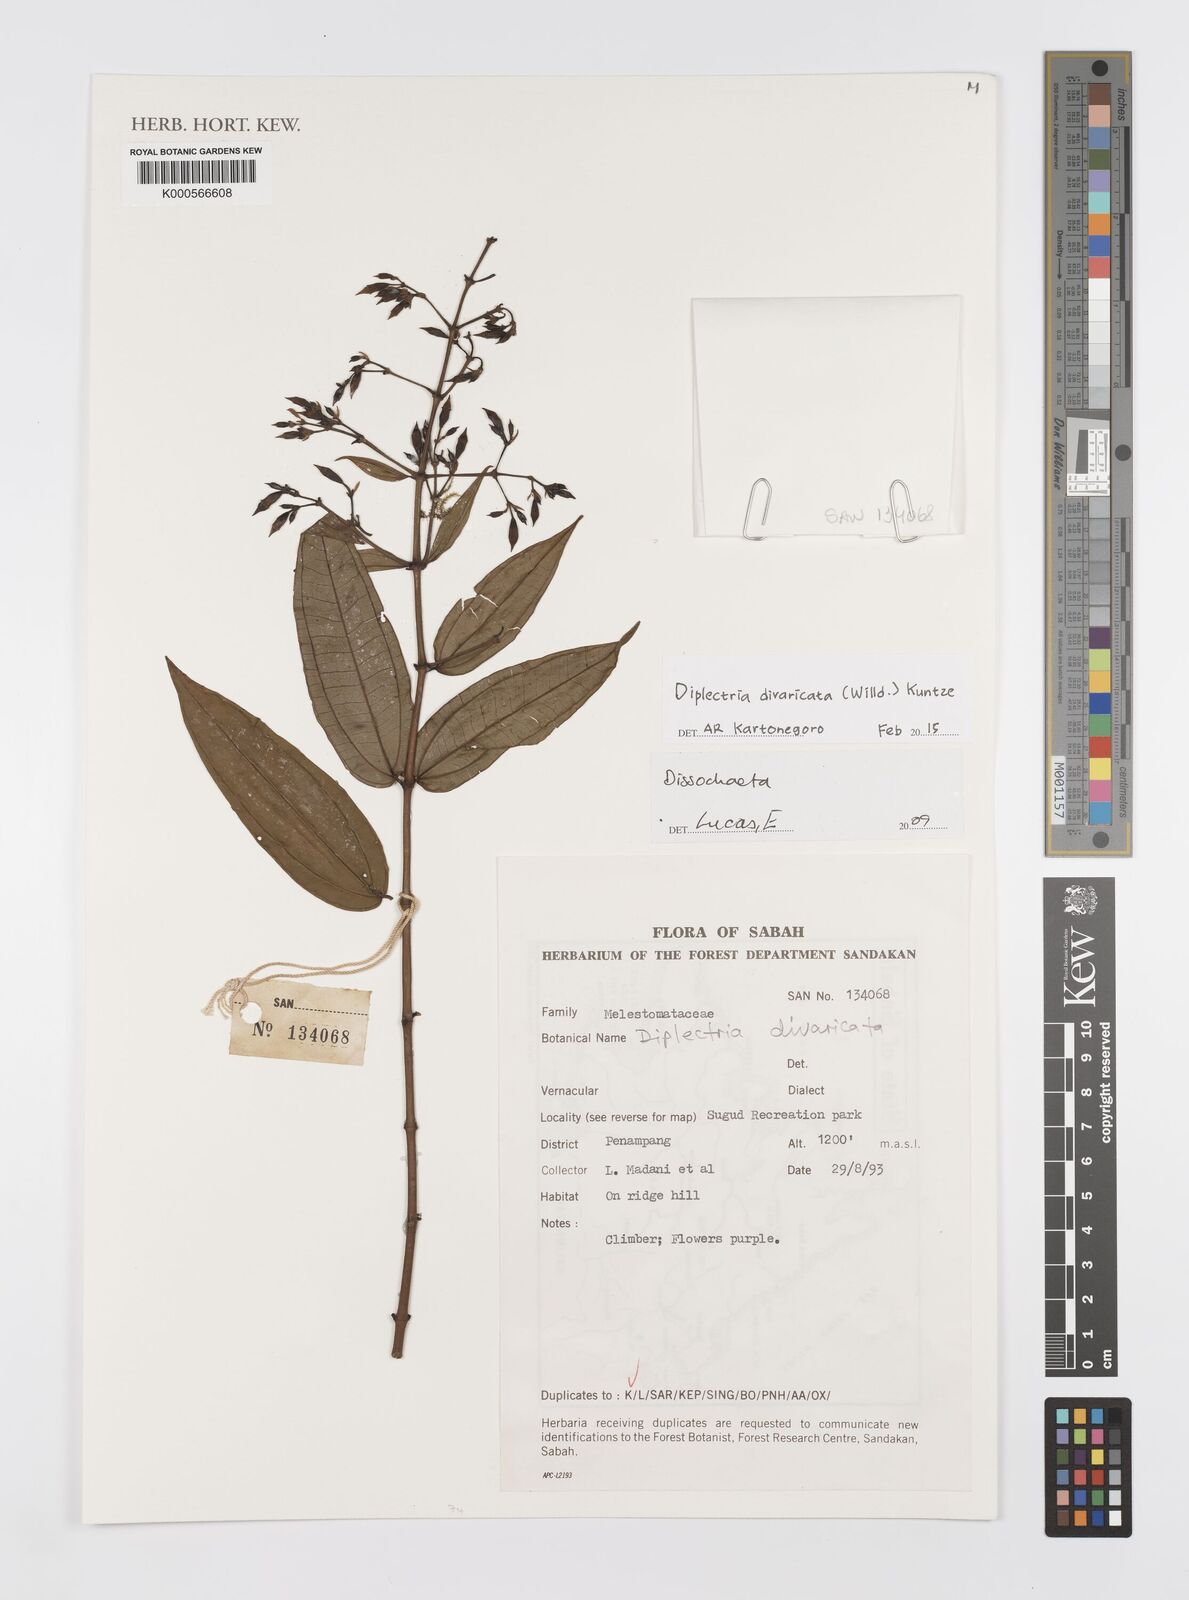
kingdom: Plantae
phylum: Tracheophyta
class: Magnoliopsida
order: Myrtales
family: Melastomataceae
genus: Diplectria
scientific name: Diplectria divaricata
